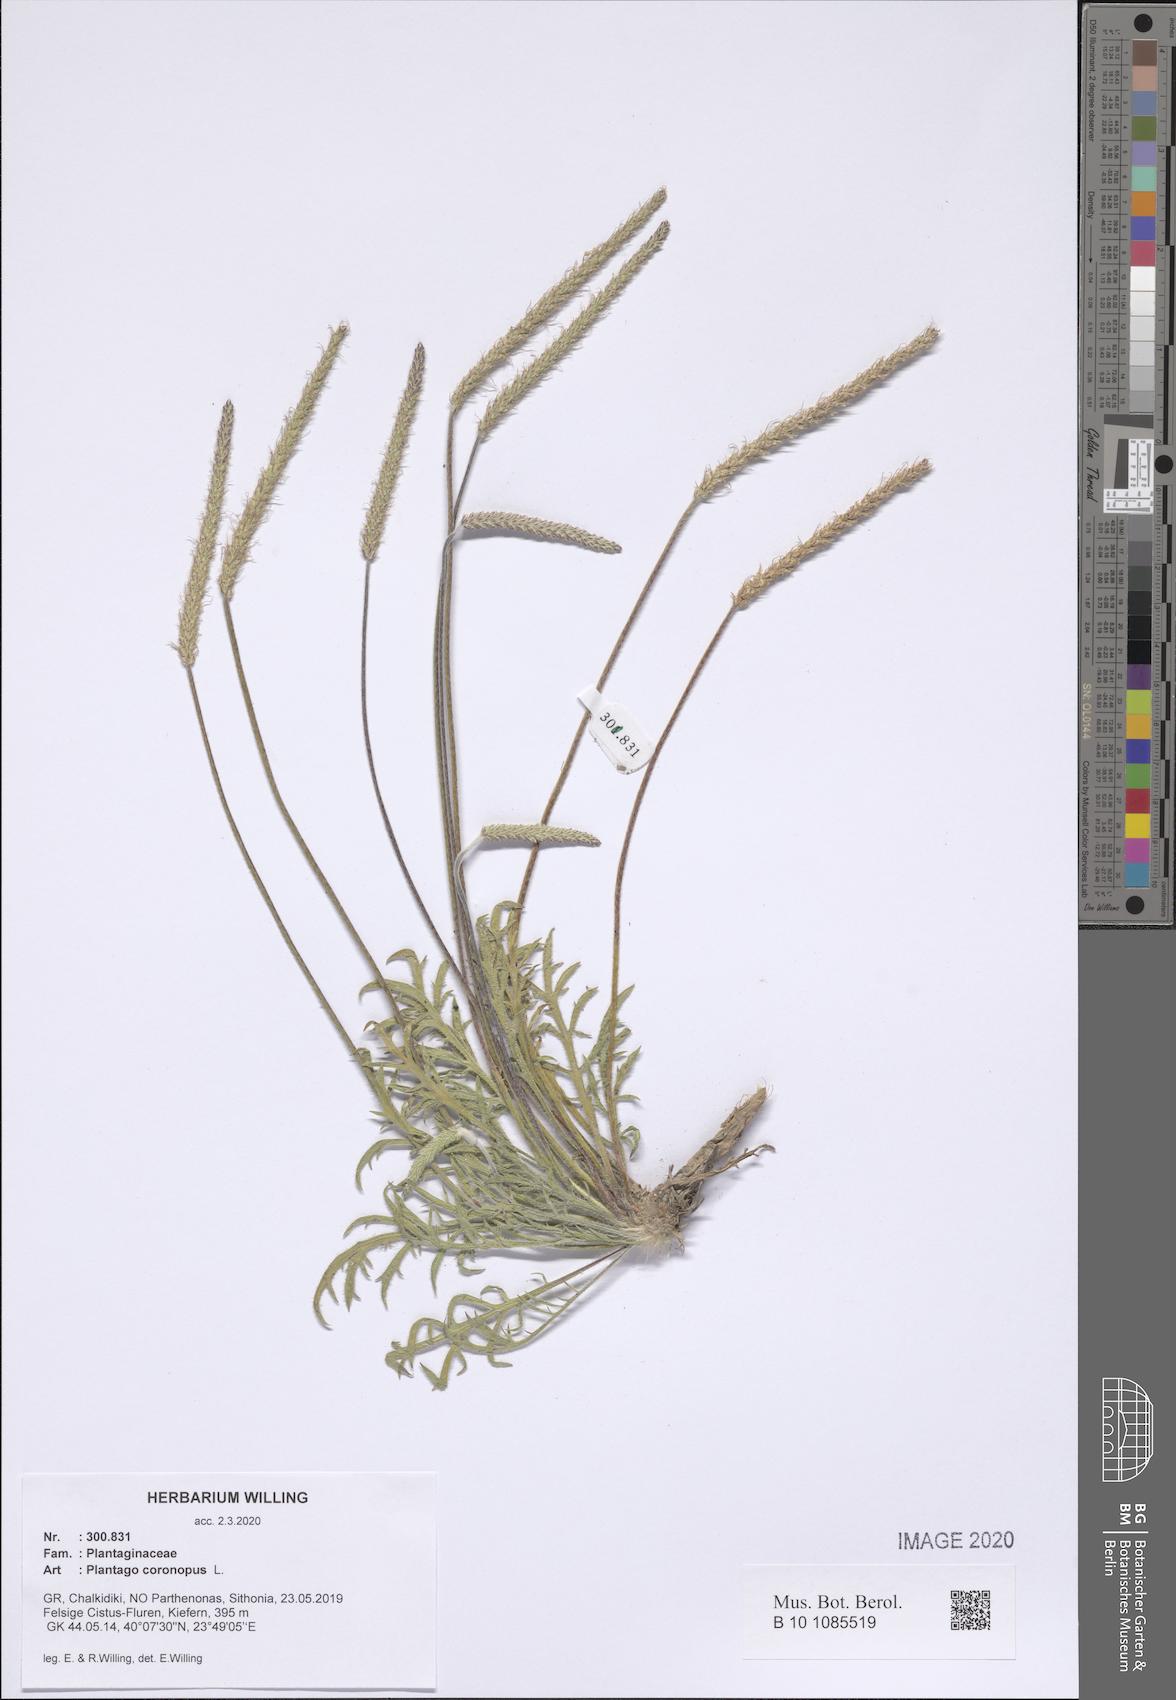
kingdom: Plantae
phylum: Tracheophyta
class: Magnoliopsida
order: Lamiales
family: Plantaginaceae
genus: Plantago
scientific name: Plantago coronopus
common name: Buck's-horn plantain
